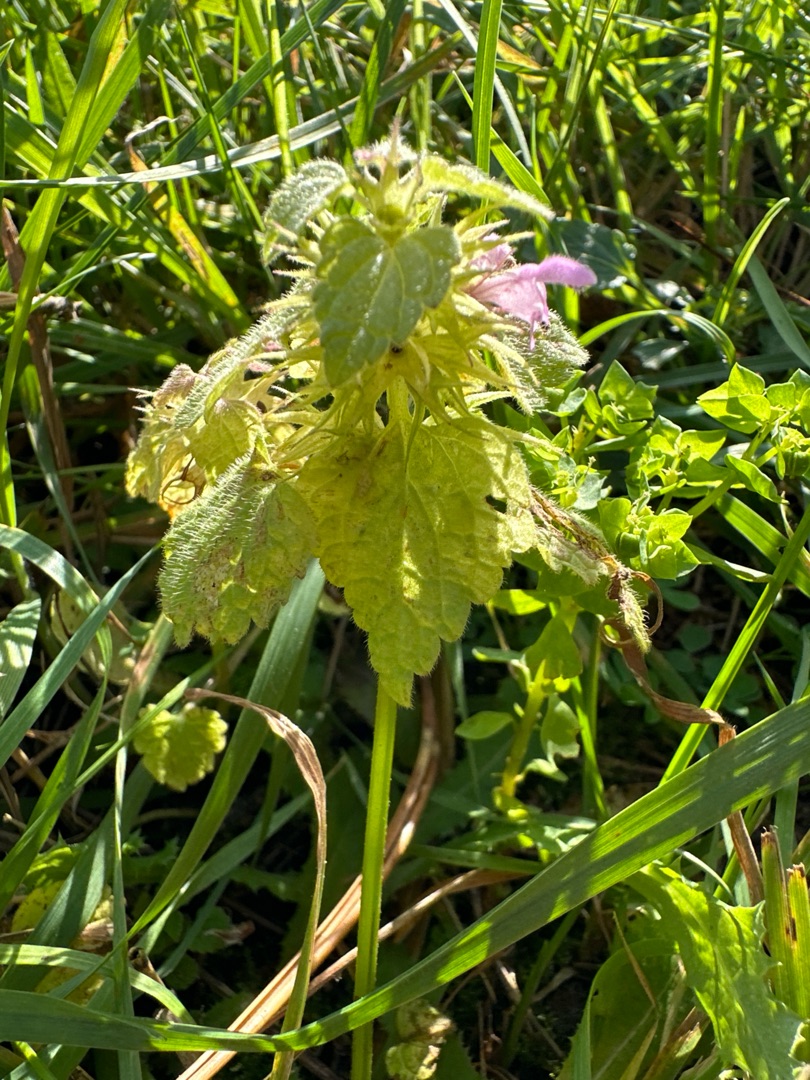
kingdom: Plantae
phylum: Tracheophyta
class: Magnoliopsida
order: Lamiales
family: Lamiaceae
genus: Lamium
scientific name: Lamium purpureum
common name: Rød tvetand
